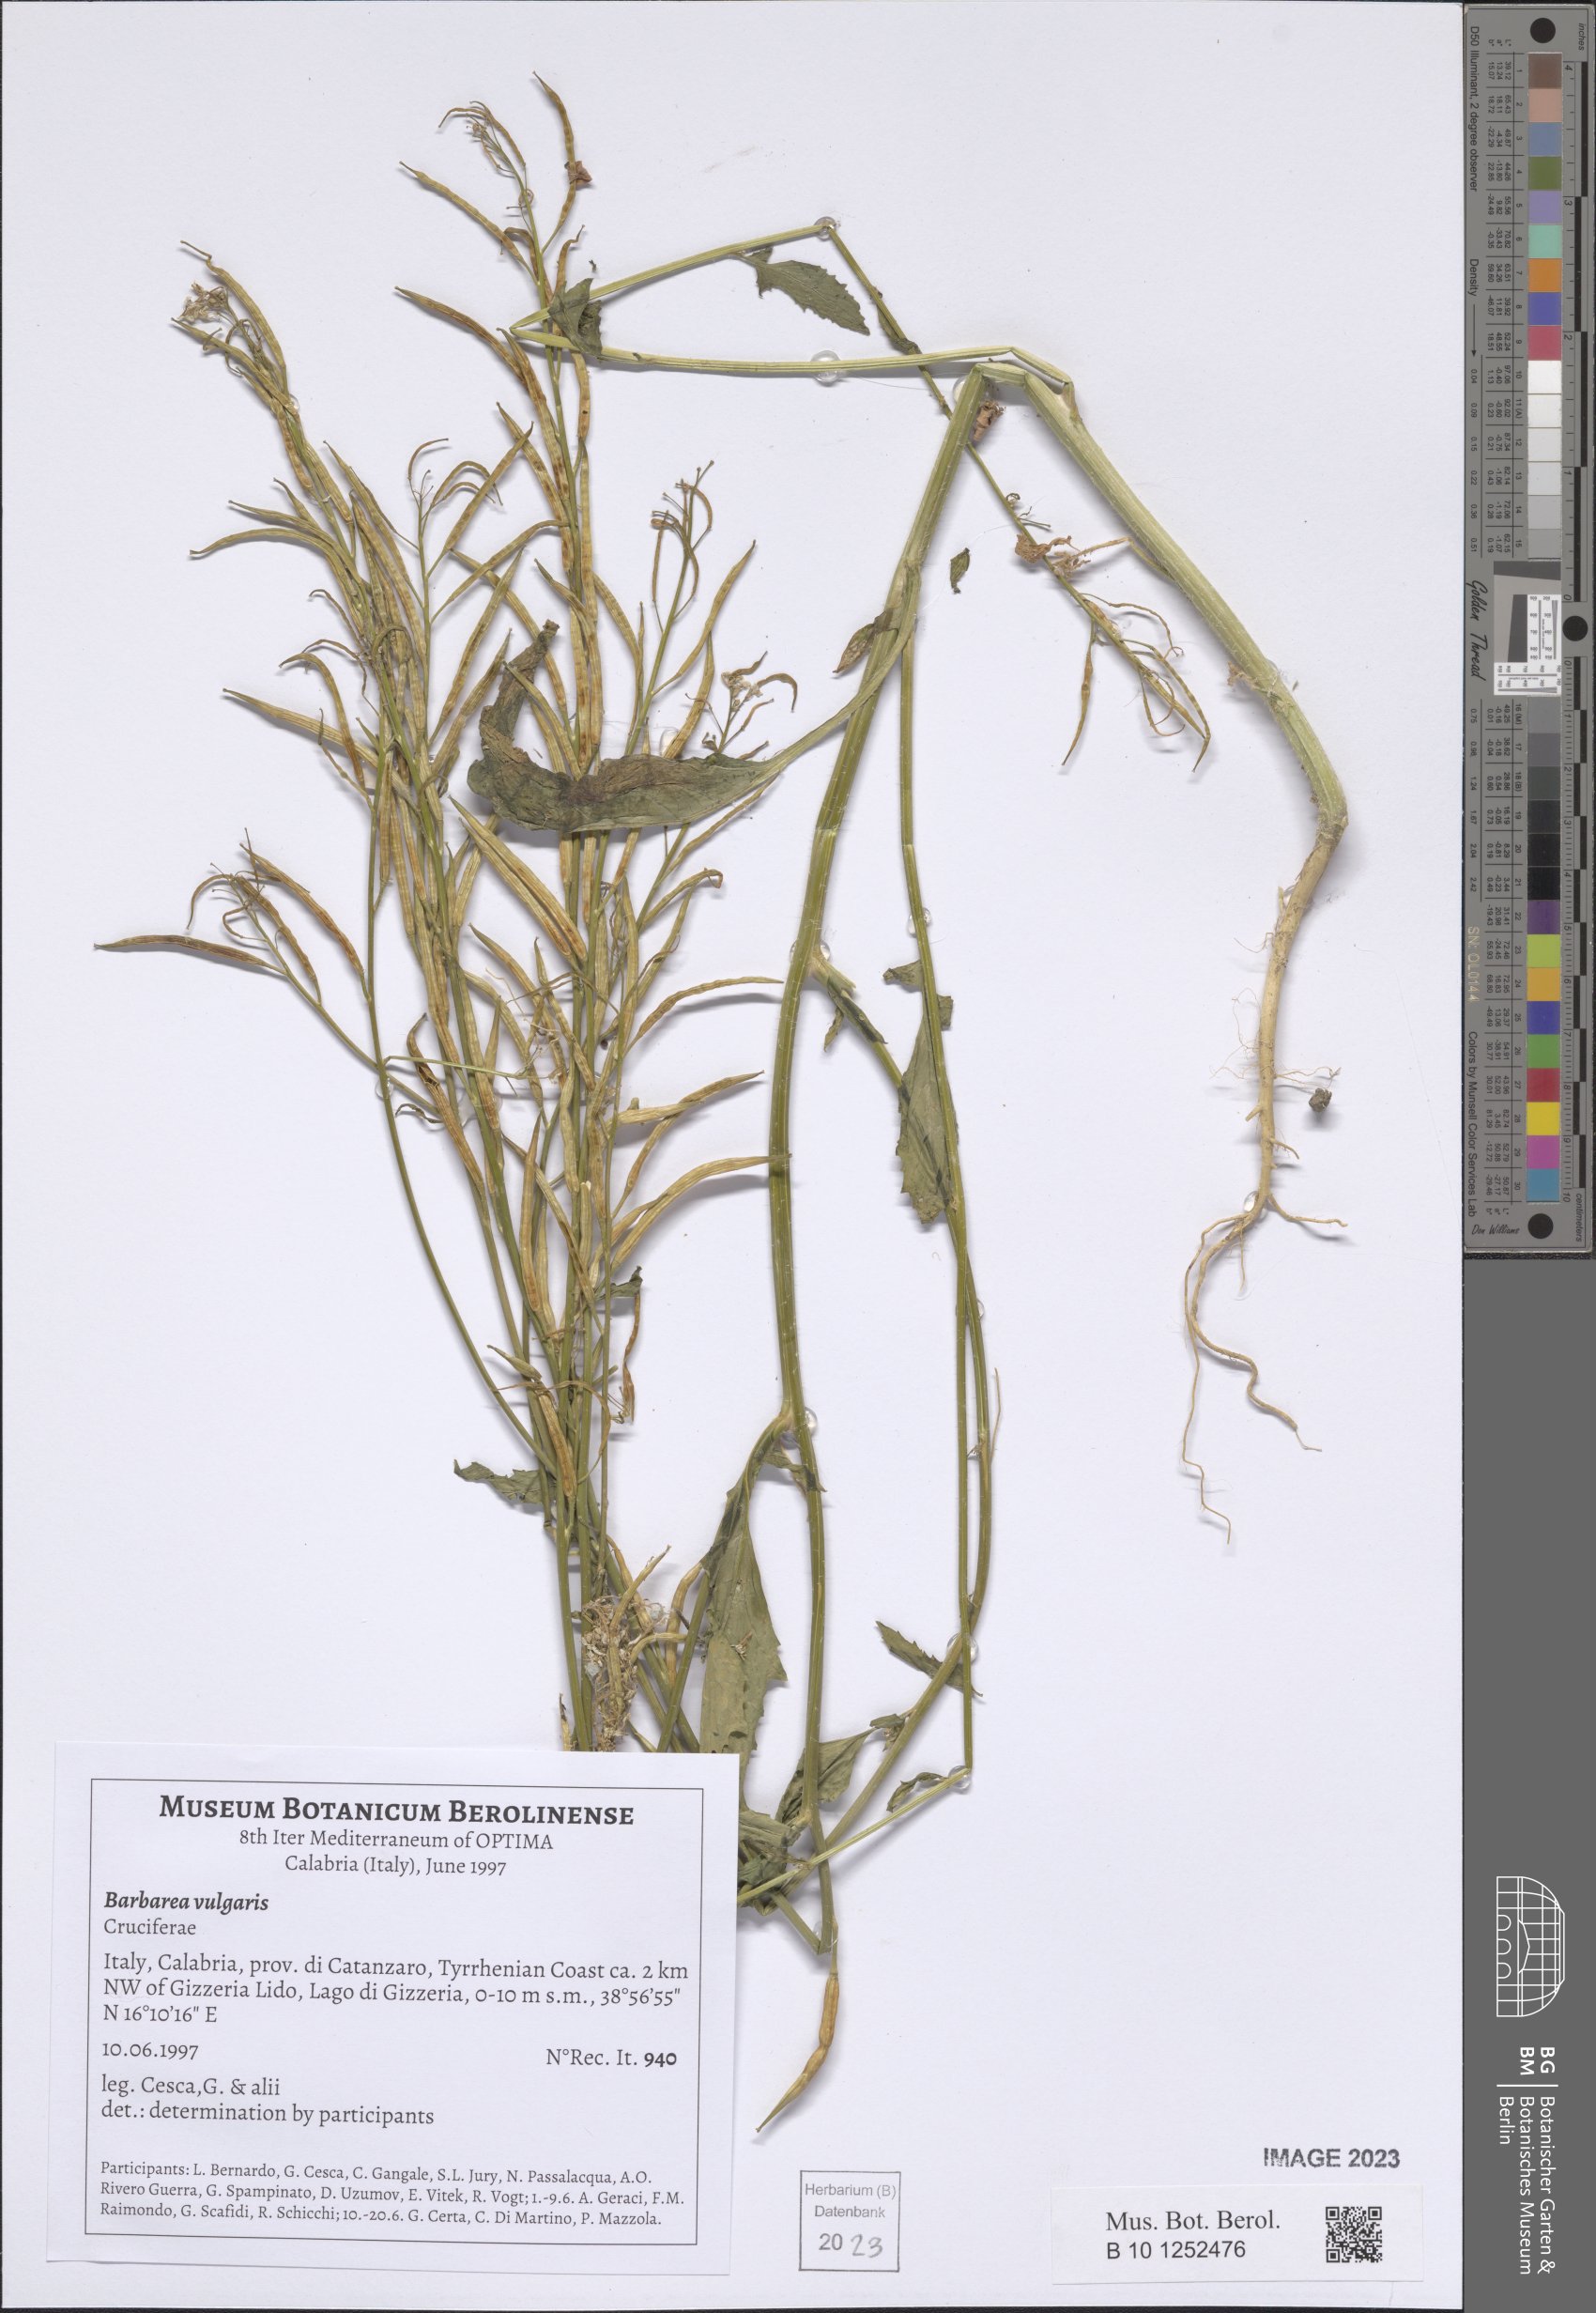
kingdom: Plantae
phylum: Tracheophyta
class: Magnoliopsida
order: Brassicales
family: Brassicaceae
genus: Barbarea
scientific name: Barbarea vulgaris
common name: Cressy-greens
